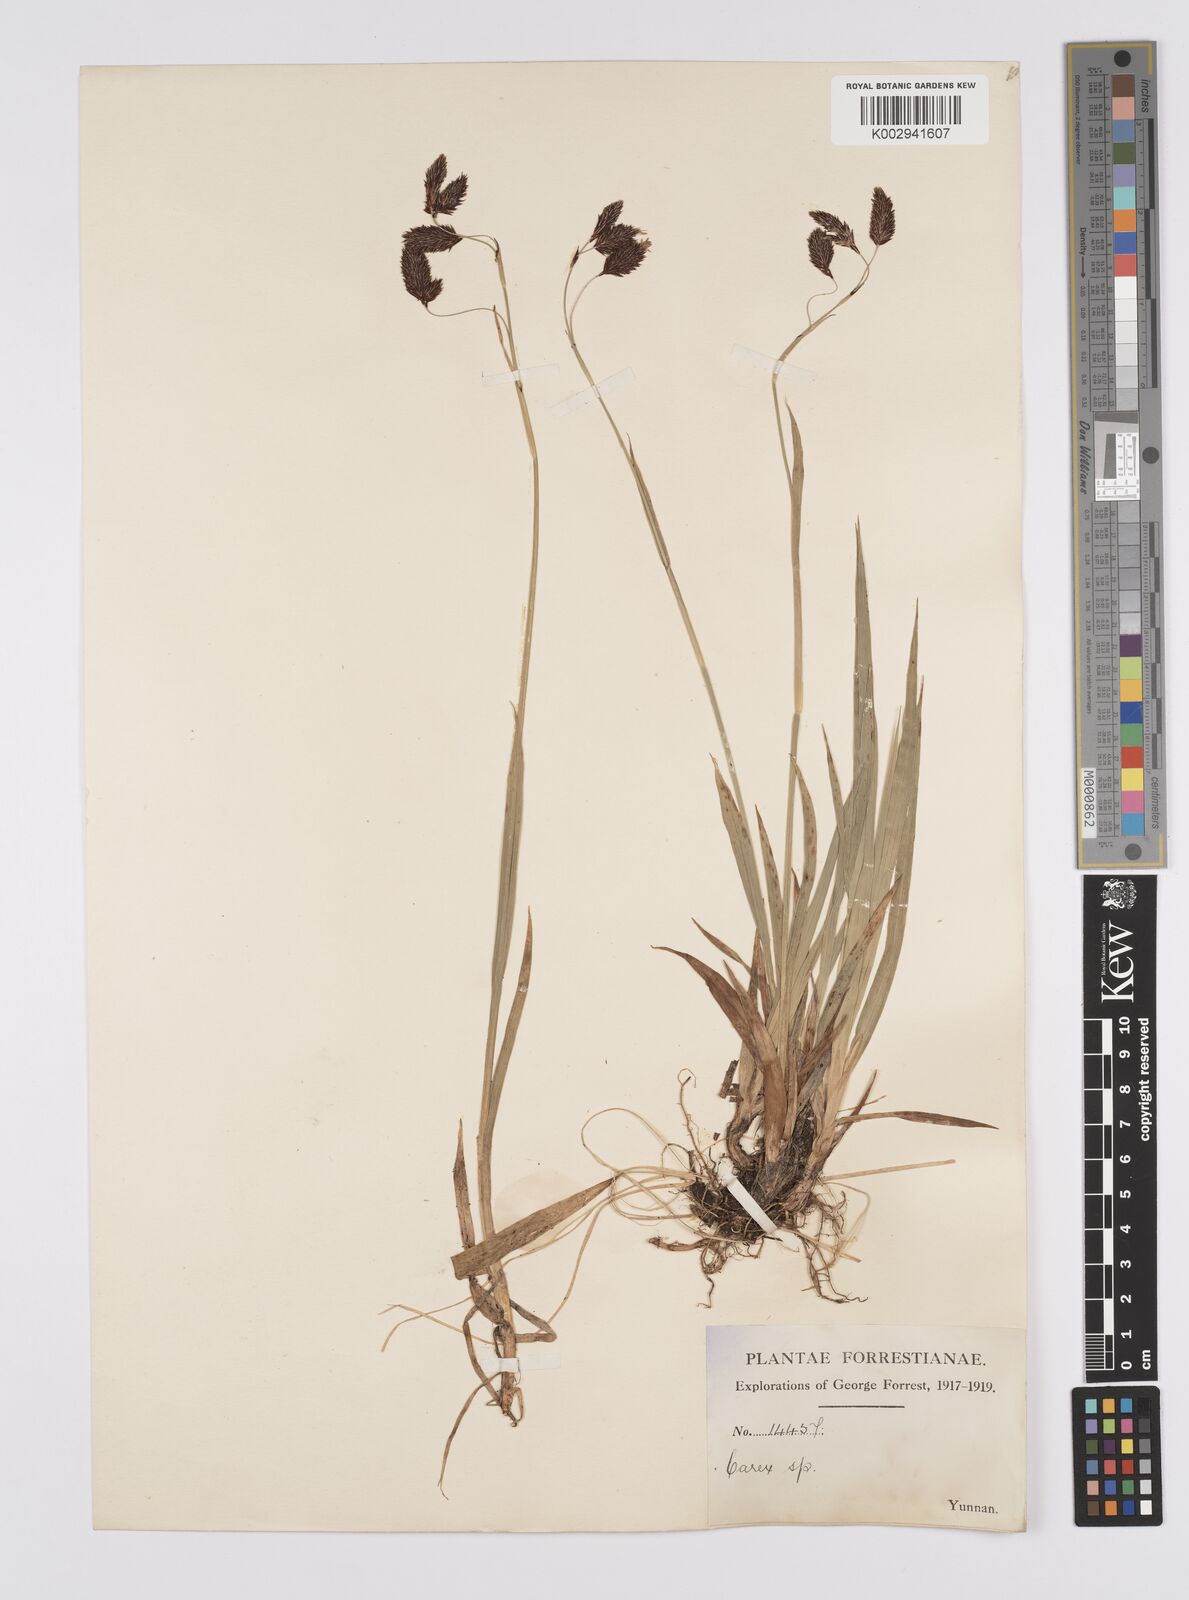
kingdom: Plantae
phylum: Tracheophyta
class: Liliopsida
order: Poales
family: Cyperaceae
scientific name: Cyperaceae
